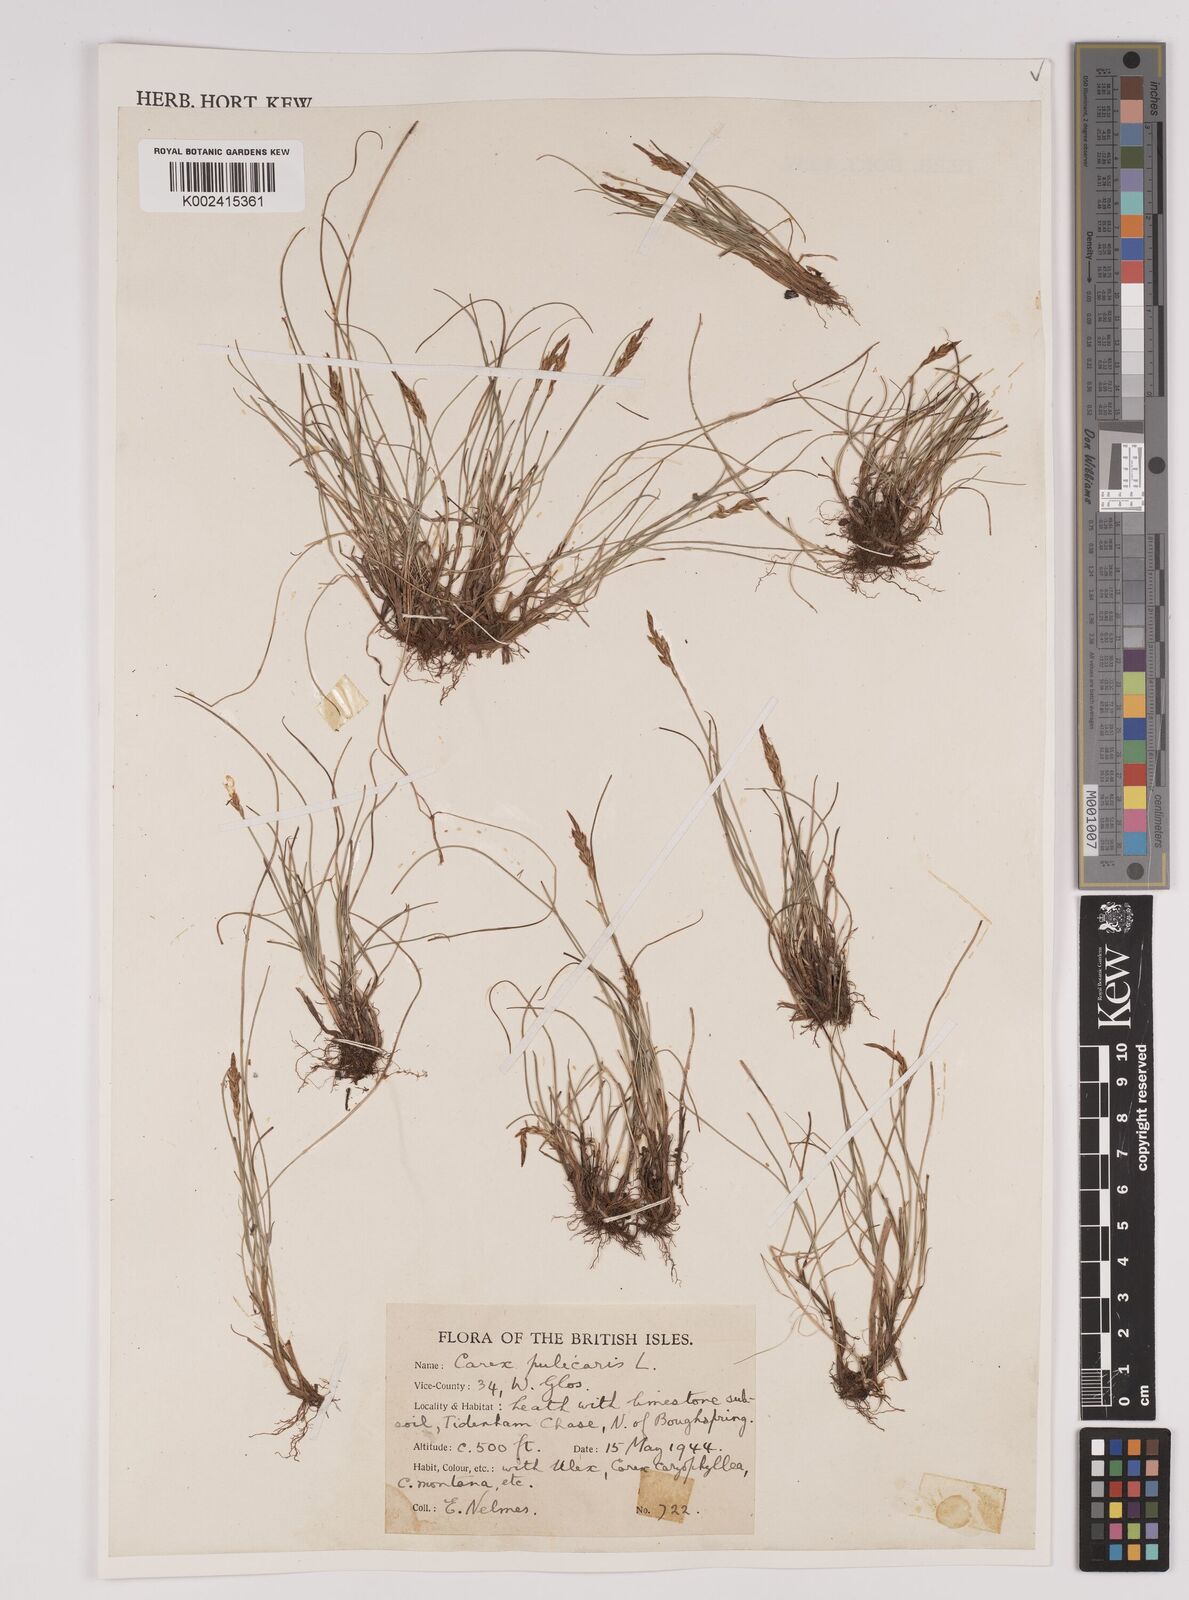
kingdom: Plantae
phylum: Tracheophyta
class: Liliopsida
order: Poales
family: Cyperaceae
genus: Carex
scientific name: Carex pulicaris
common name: Flea sedge
